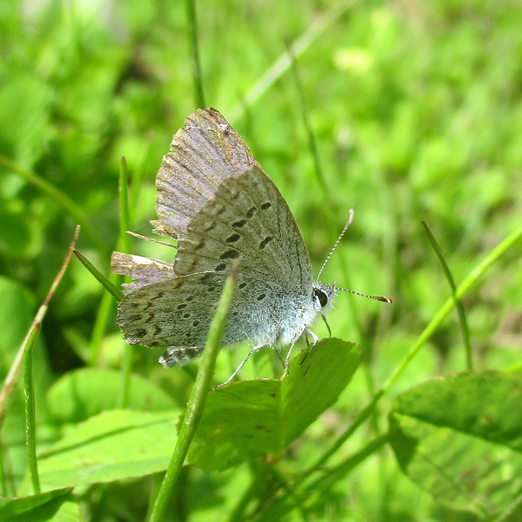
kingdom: Animalia
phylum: Arthropoda
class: Insecta
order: Lepidoptera
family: Lycaenidae
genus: Icaricia
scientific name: Icaricia icarioides
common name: Boisduval's Blue
